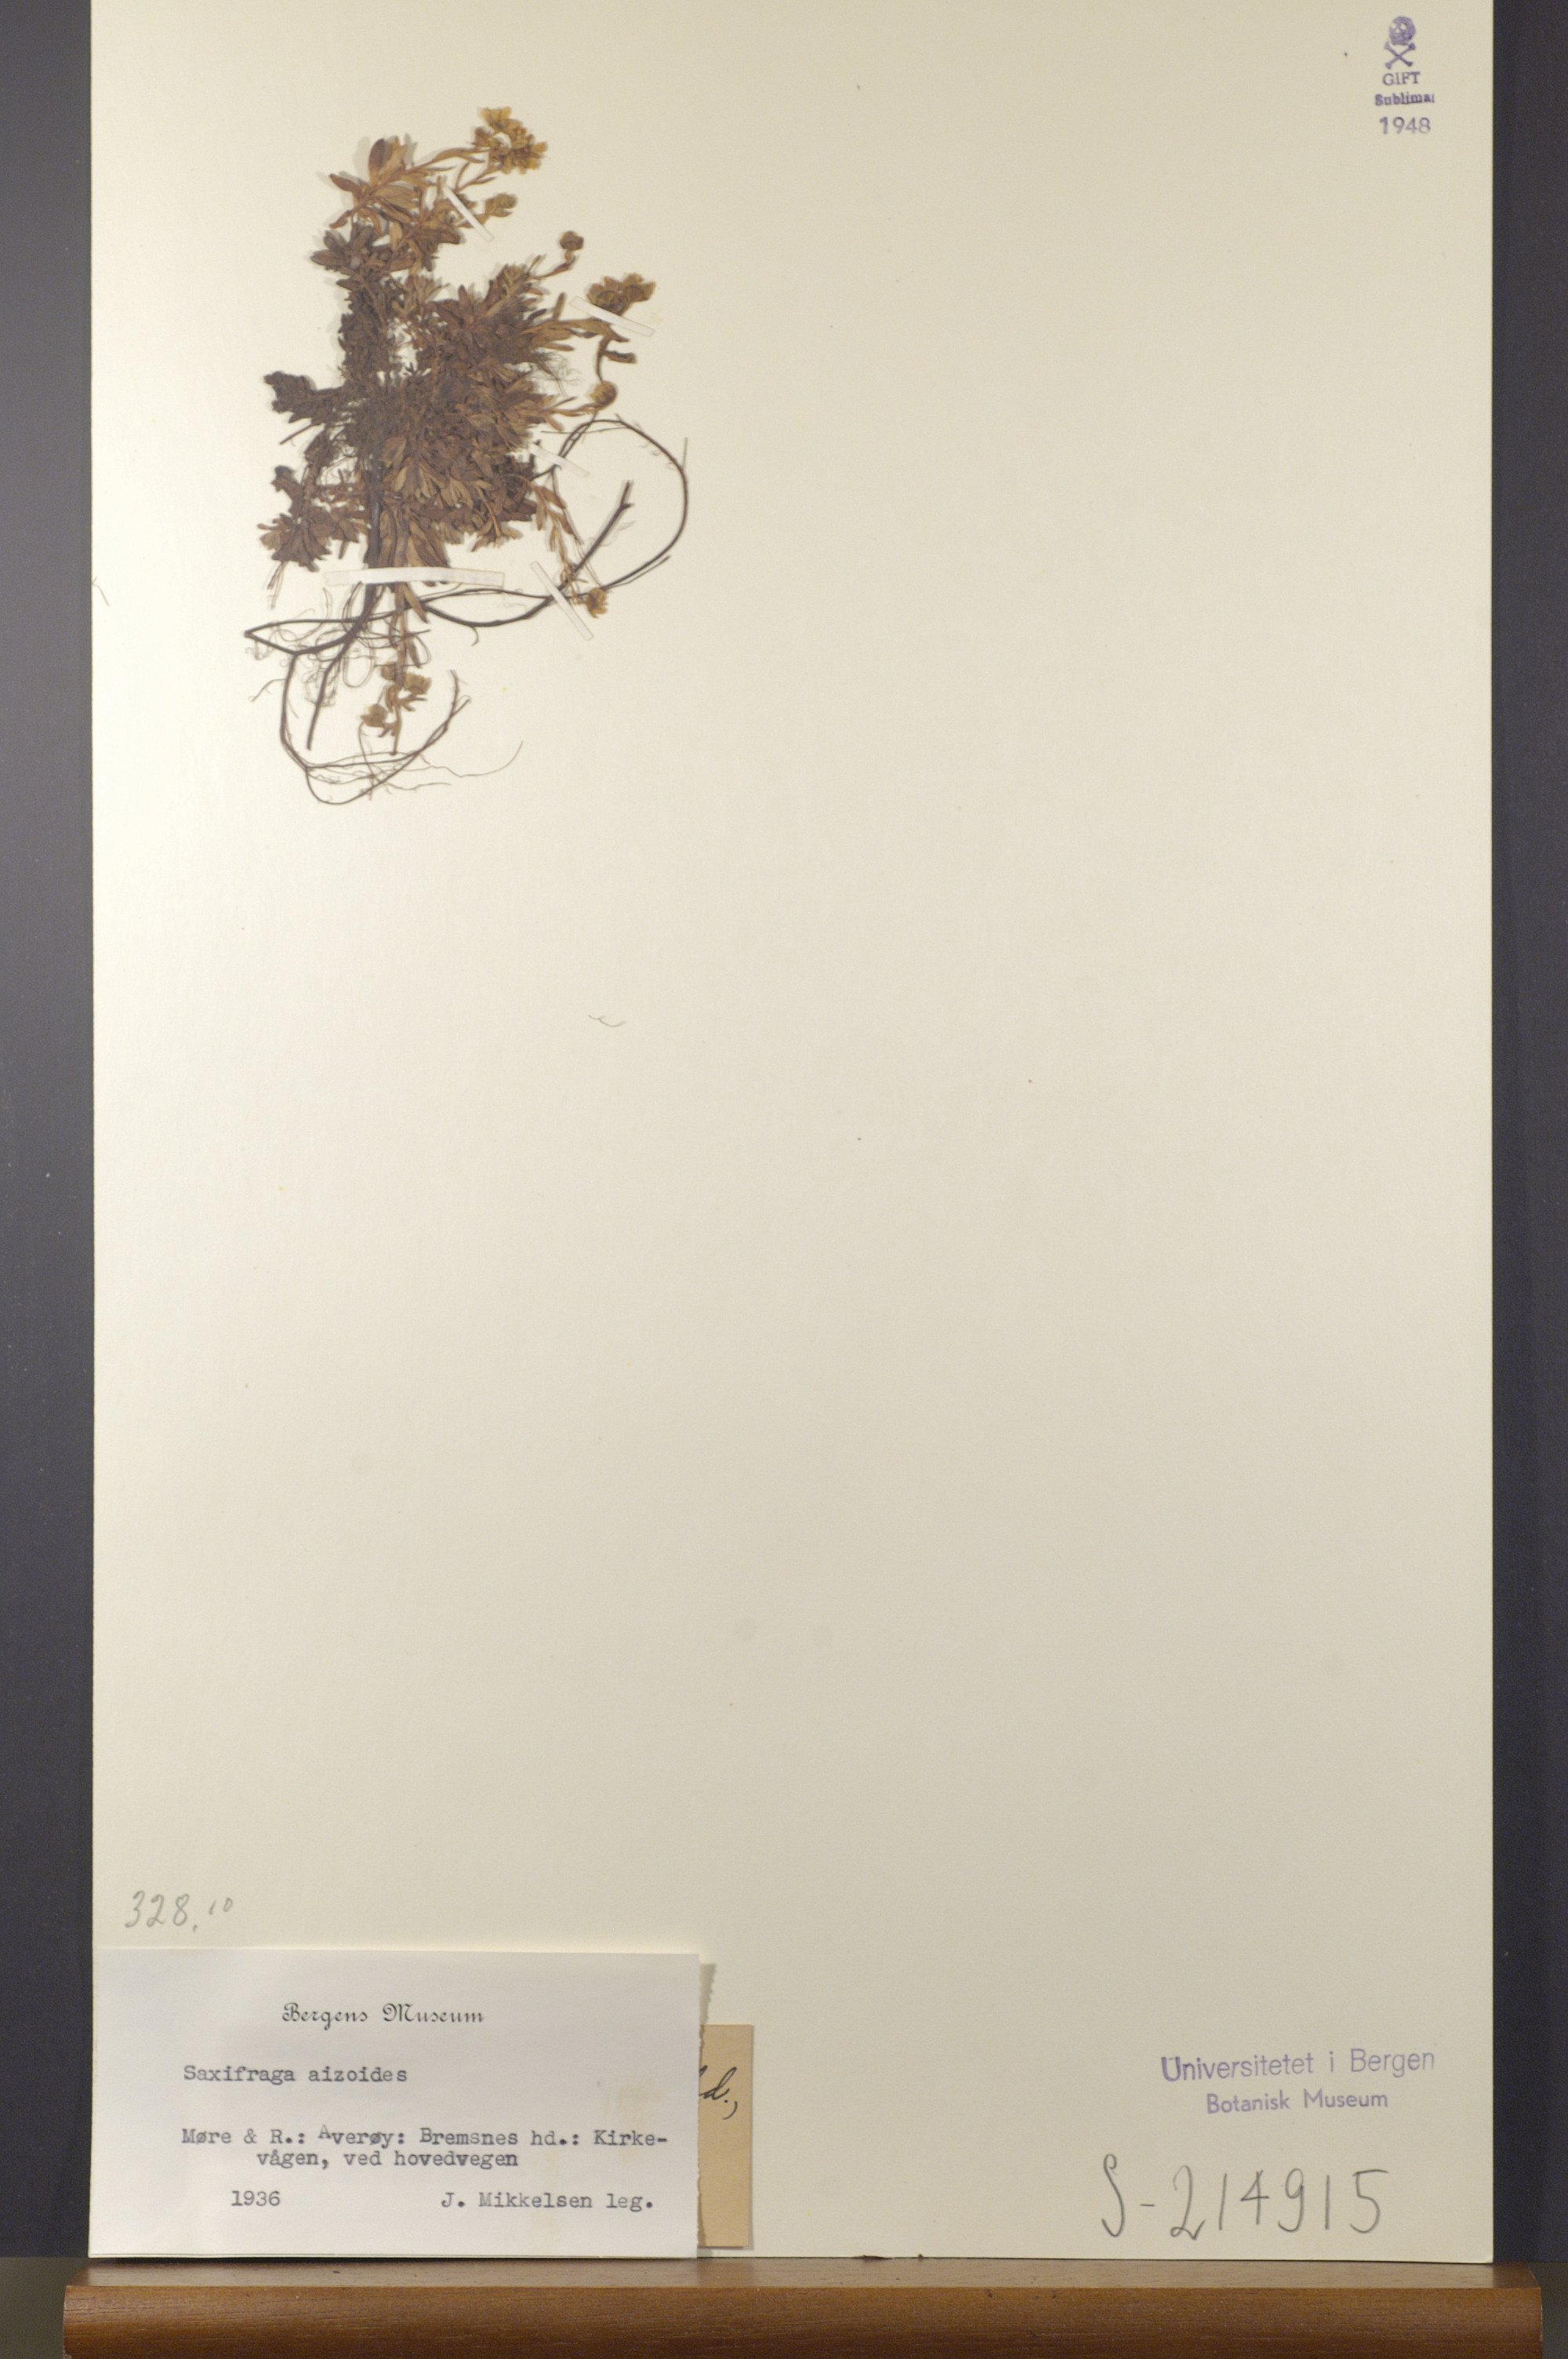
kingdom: Plantae
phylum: Tracheophyta
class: Magnoliopsida
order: Saxifragales
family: Saxifragaceae
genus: Saxifraga
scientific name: Saxifraga aizoides
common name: Yellow mountain saxifrage
